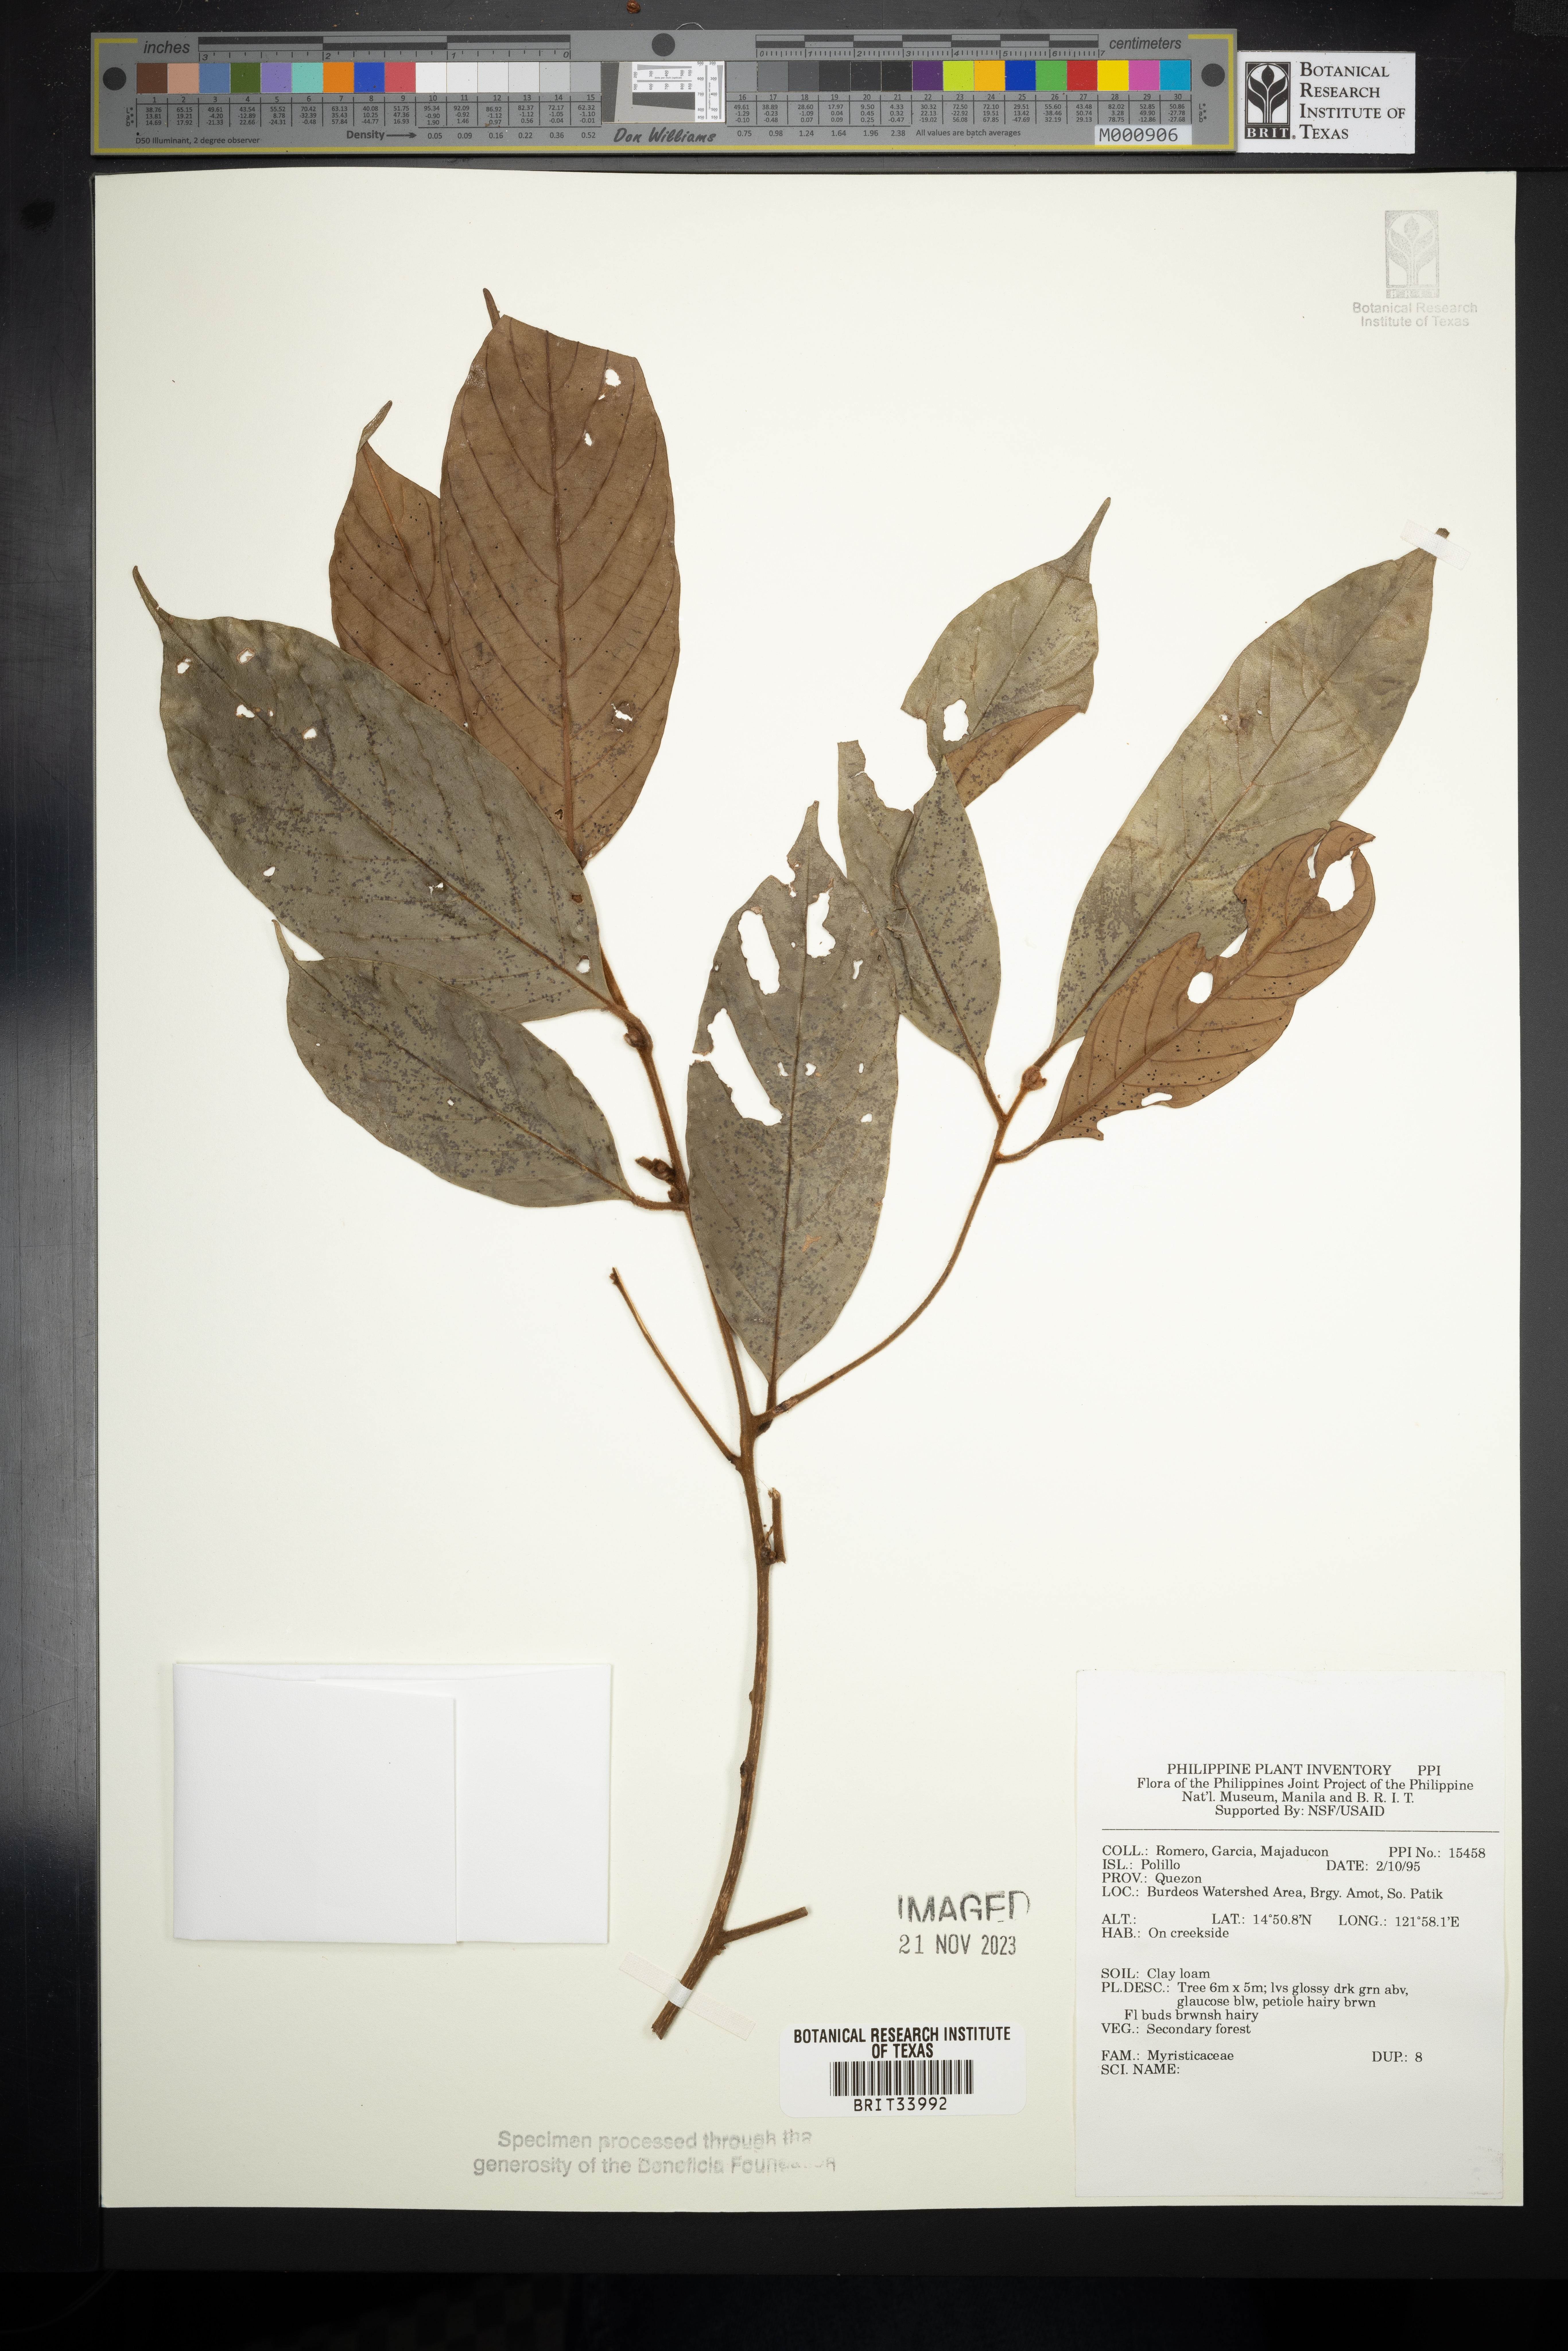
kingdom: Plantae
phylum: Tracheophyta
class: Magnoliopsida
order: Magnoliales
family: Myristicaceae
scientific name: Myristicaceae
